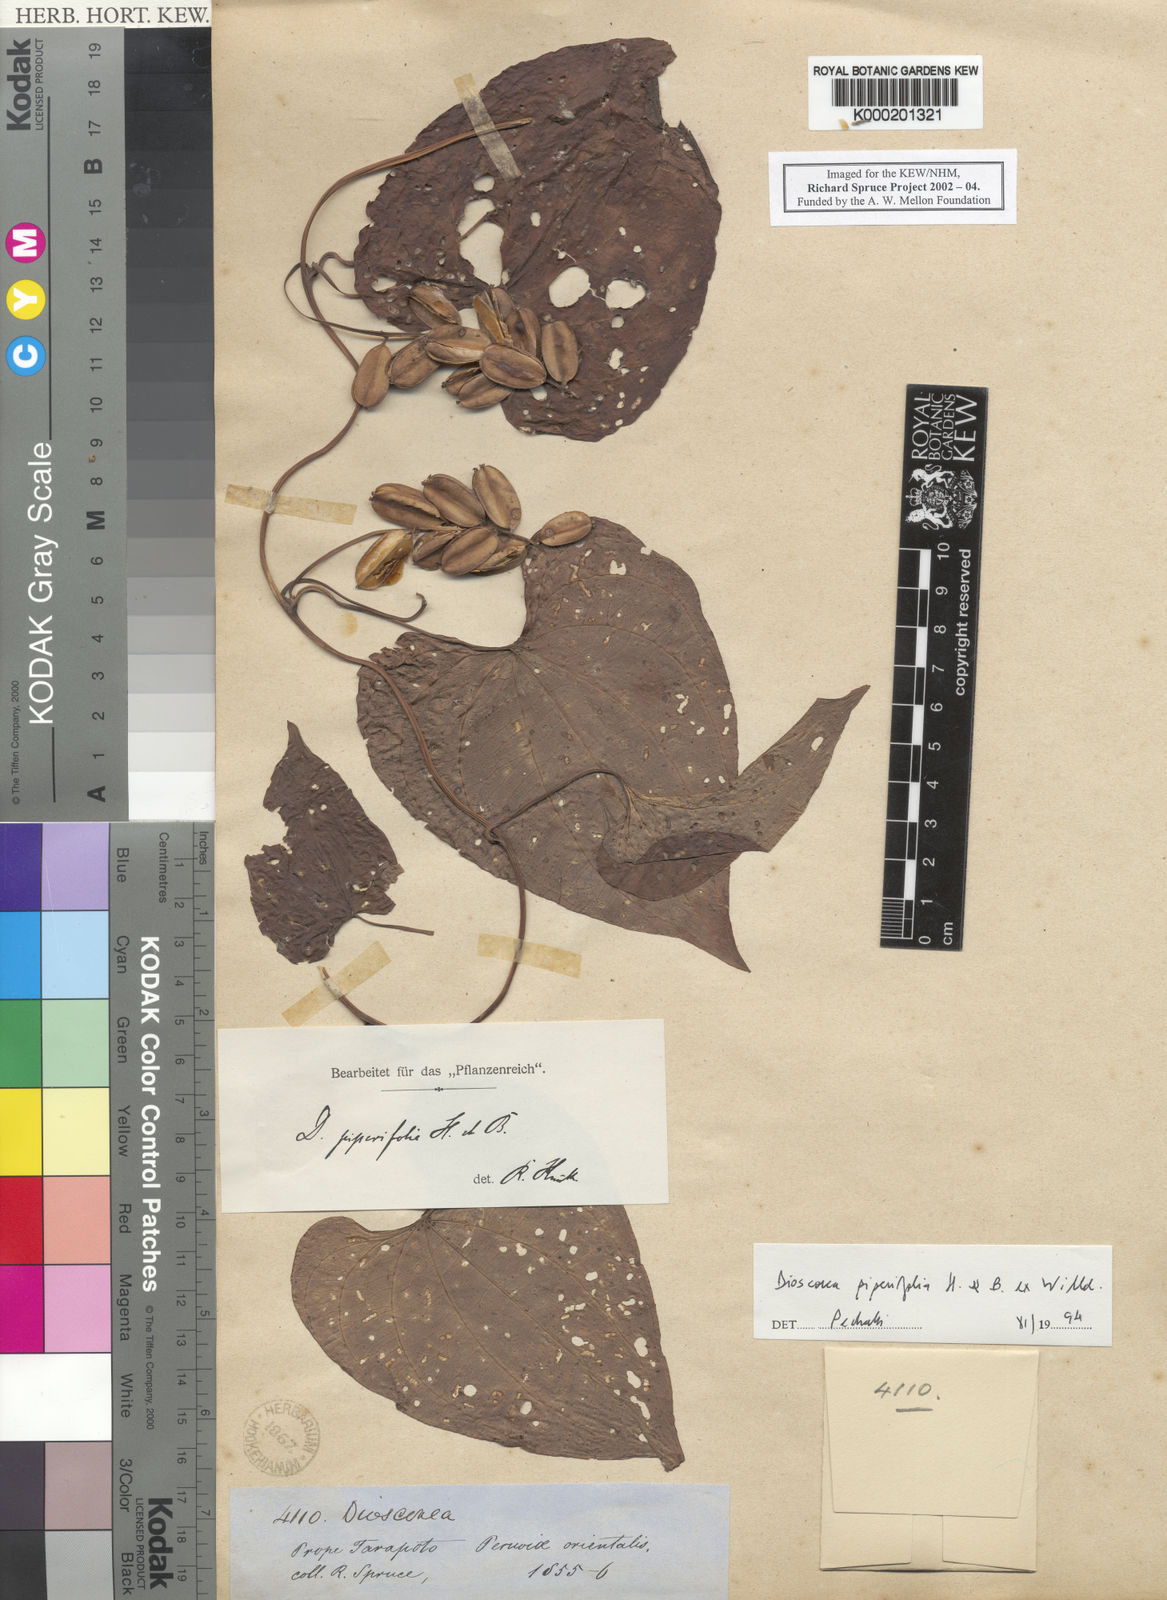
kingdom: Plantae
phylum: Tracheophyta
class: Liliopsida
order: Dioscoreales
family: Dioscoreaceae
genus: Dioscorea
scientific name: Dioscorea piperifolia
